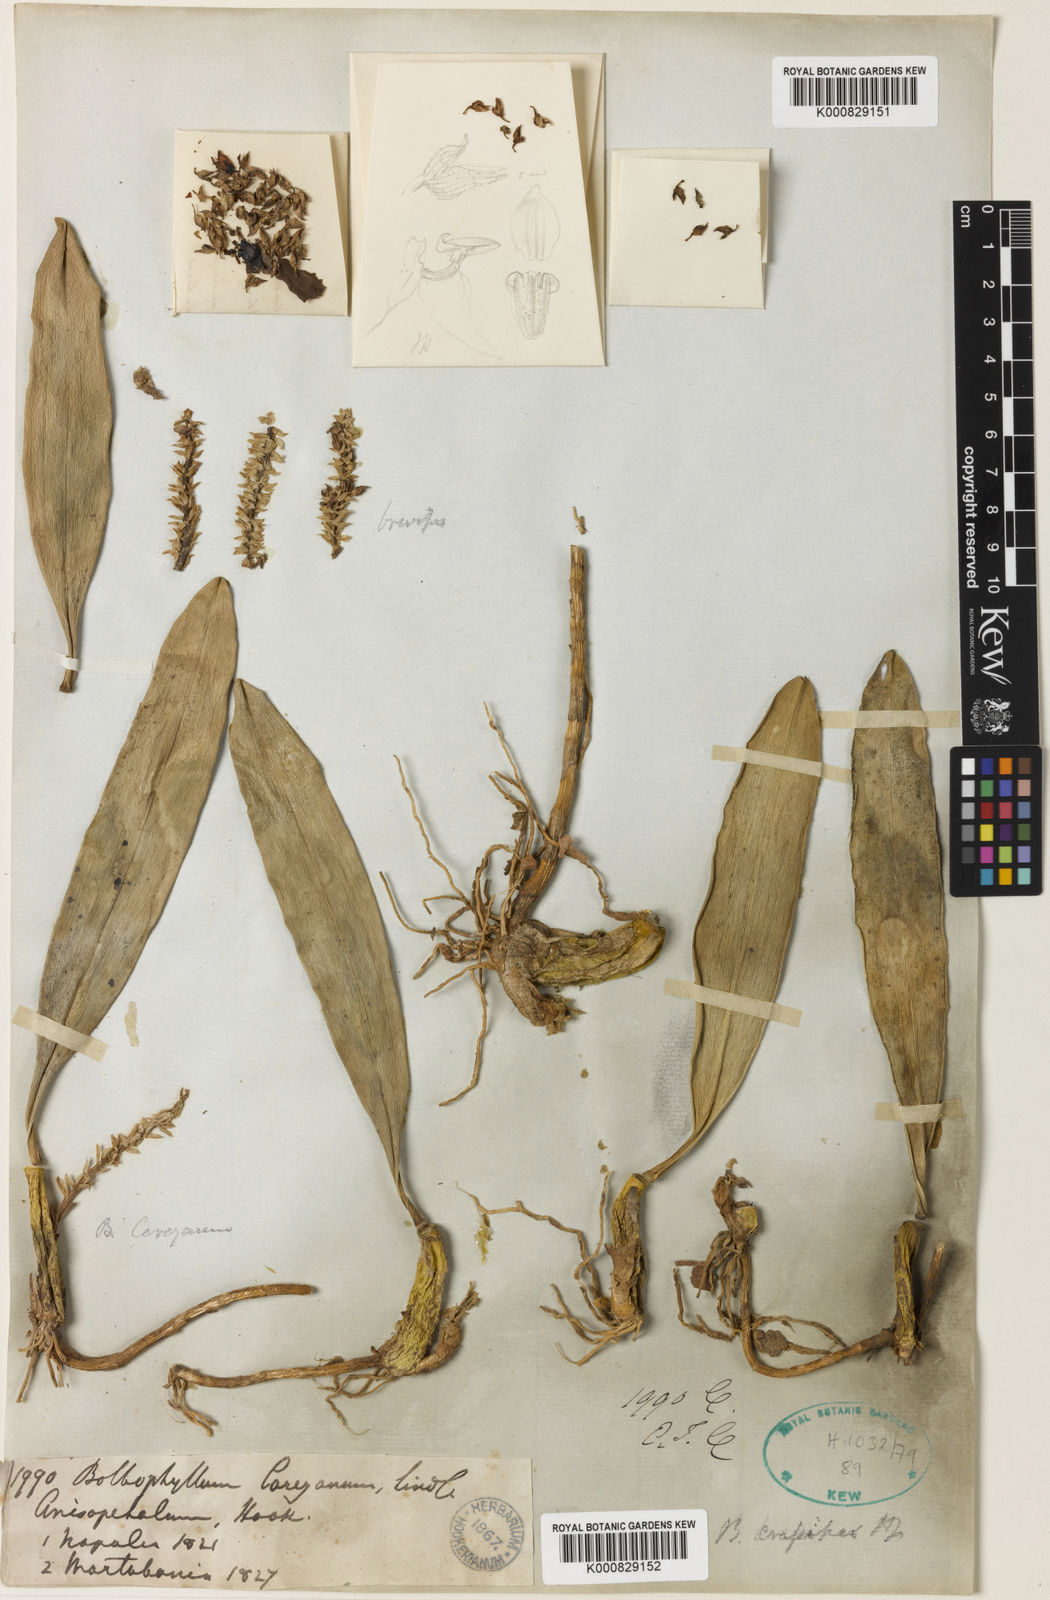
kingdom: Plantae
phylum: Tracheophyta
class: Liliopsida
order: Asparagales
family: Orchidaceae
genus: Bulbophyllum
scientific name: Bulbophyllum crassipes
